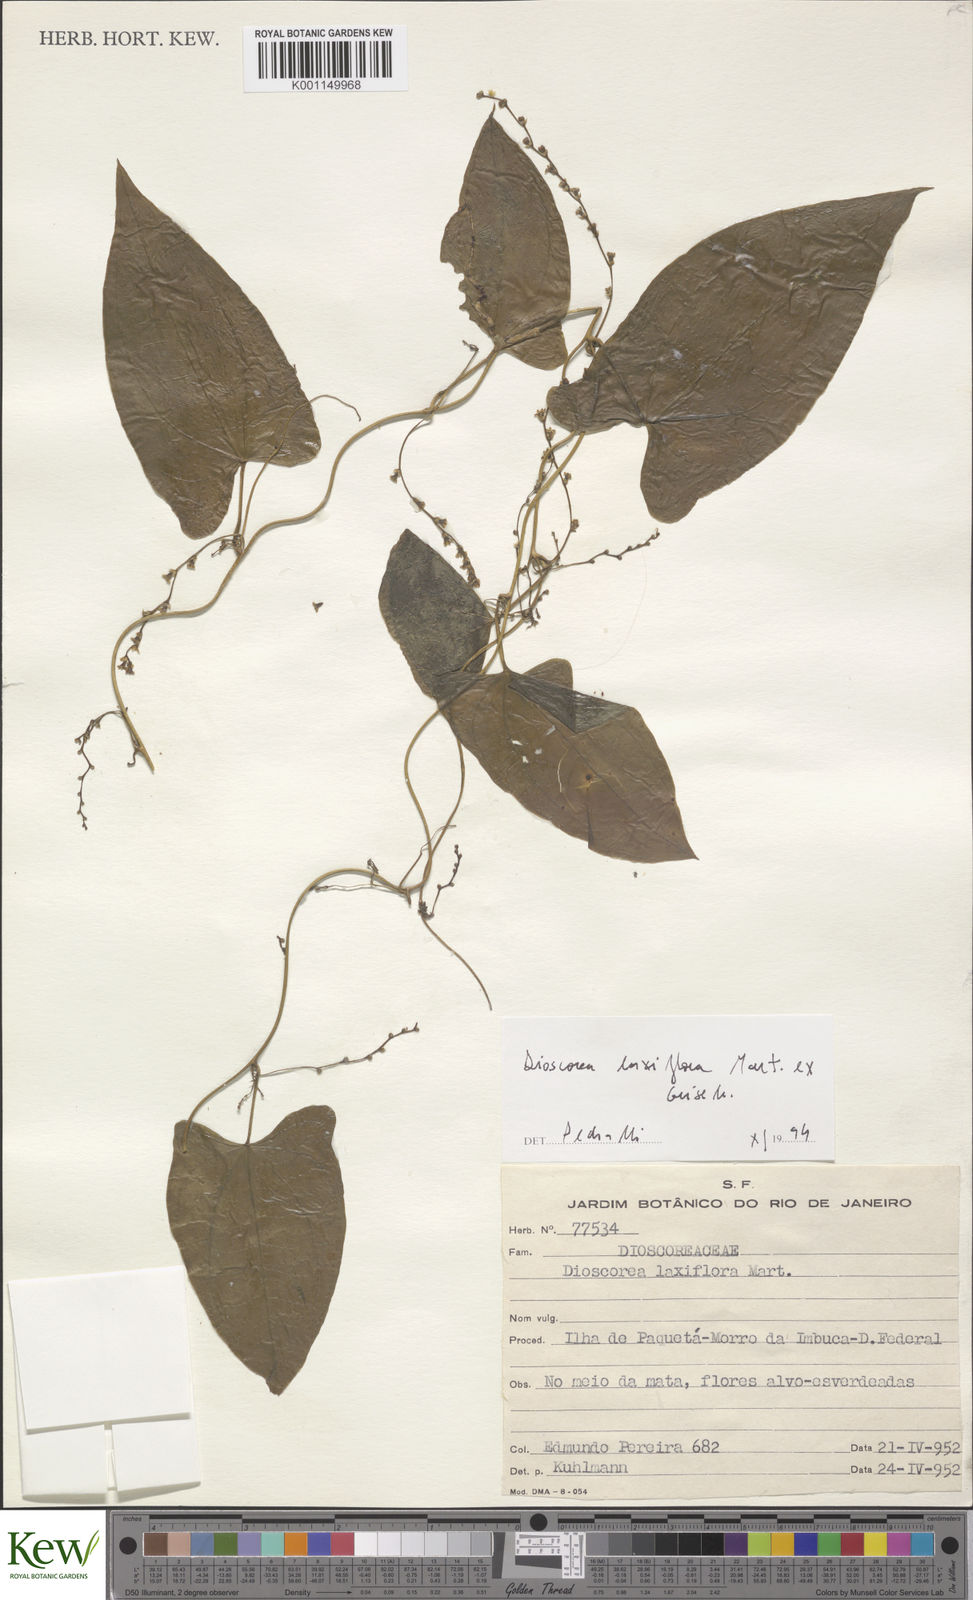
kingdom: Plantae
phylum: Tracheophyta
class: Liliopsida
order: Dioscoreales
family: Dioscoreaceae
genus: Dioscorea
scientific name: Dioscorea laxiflora
